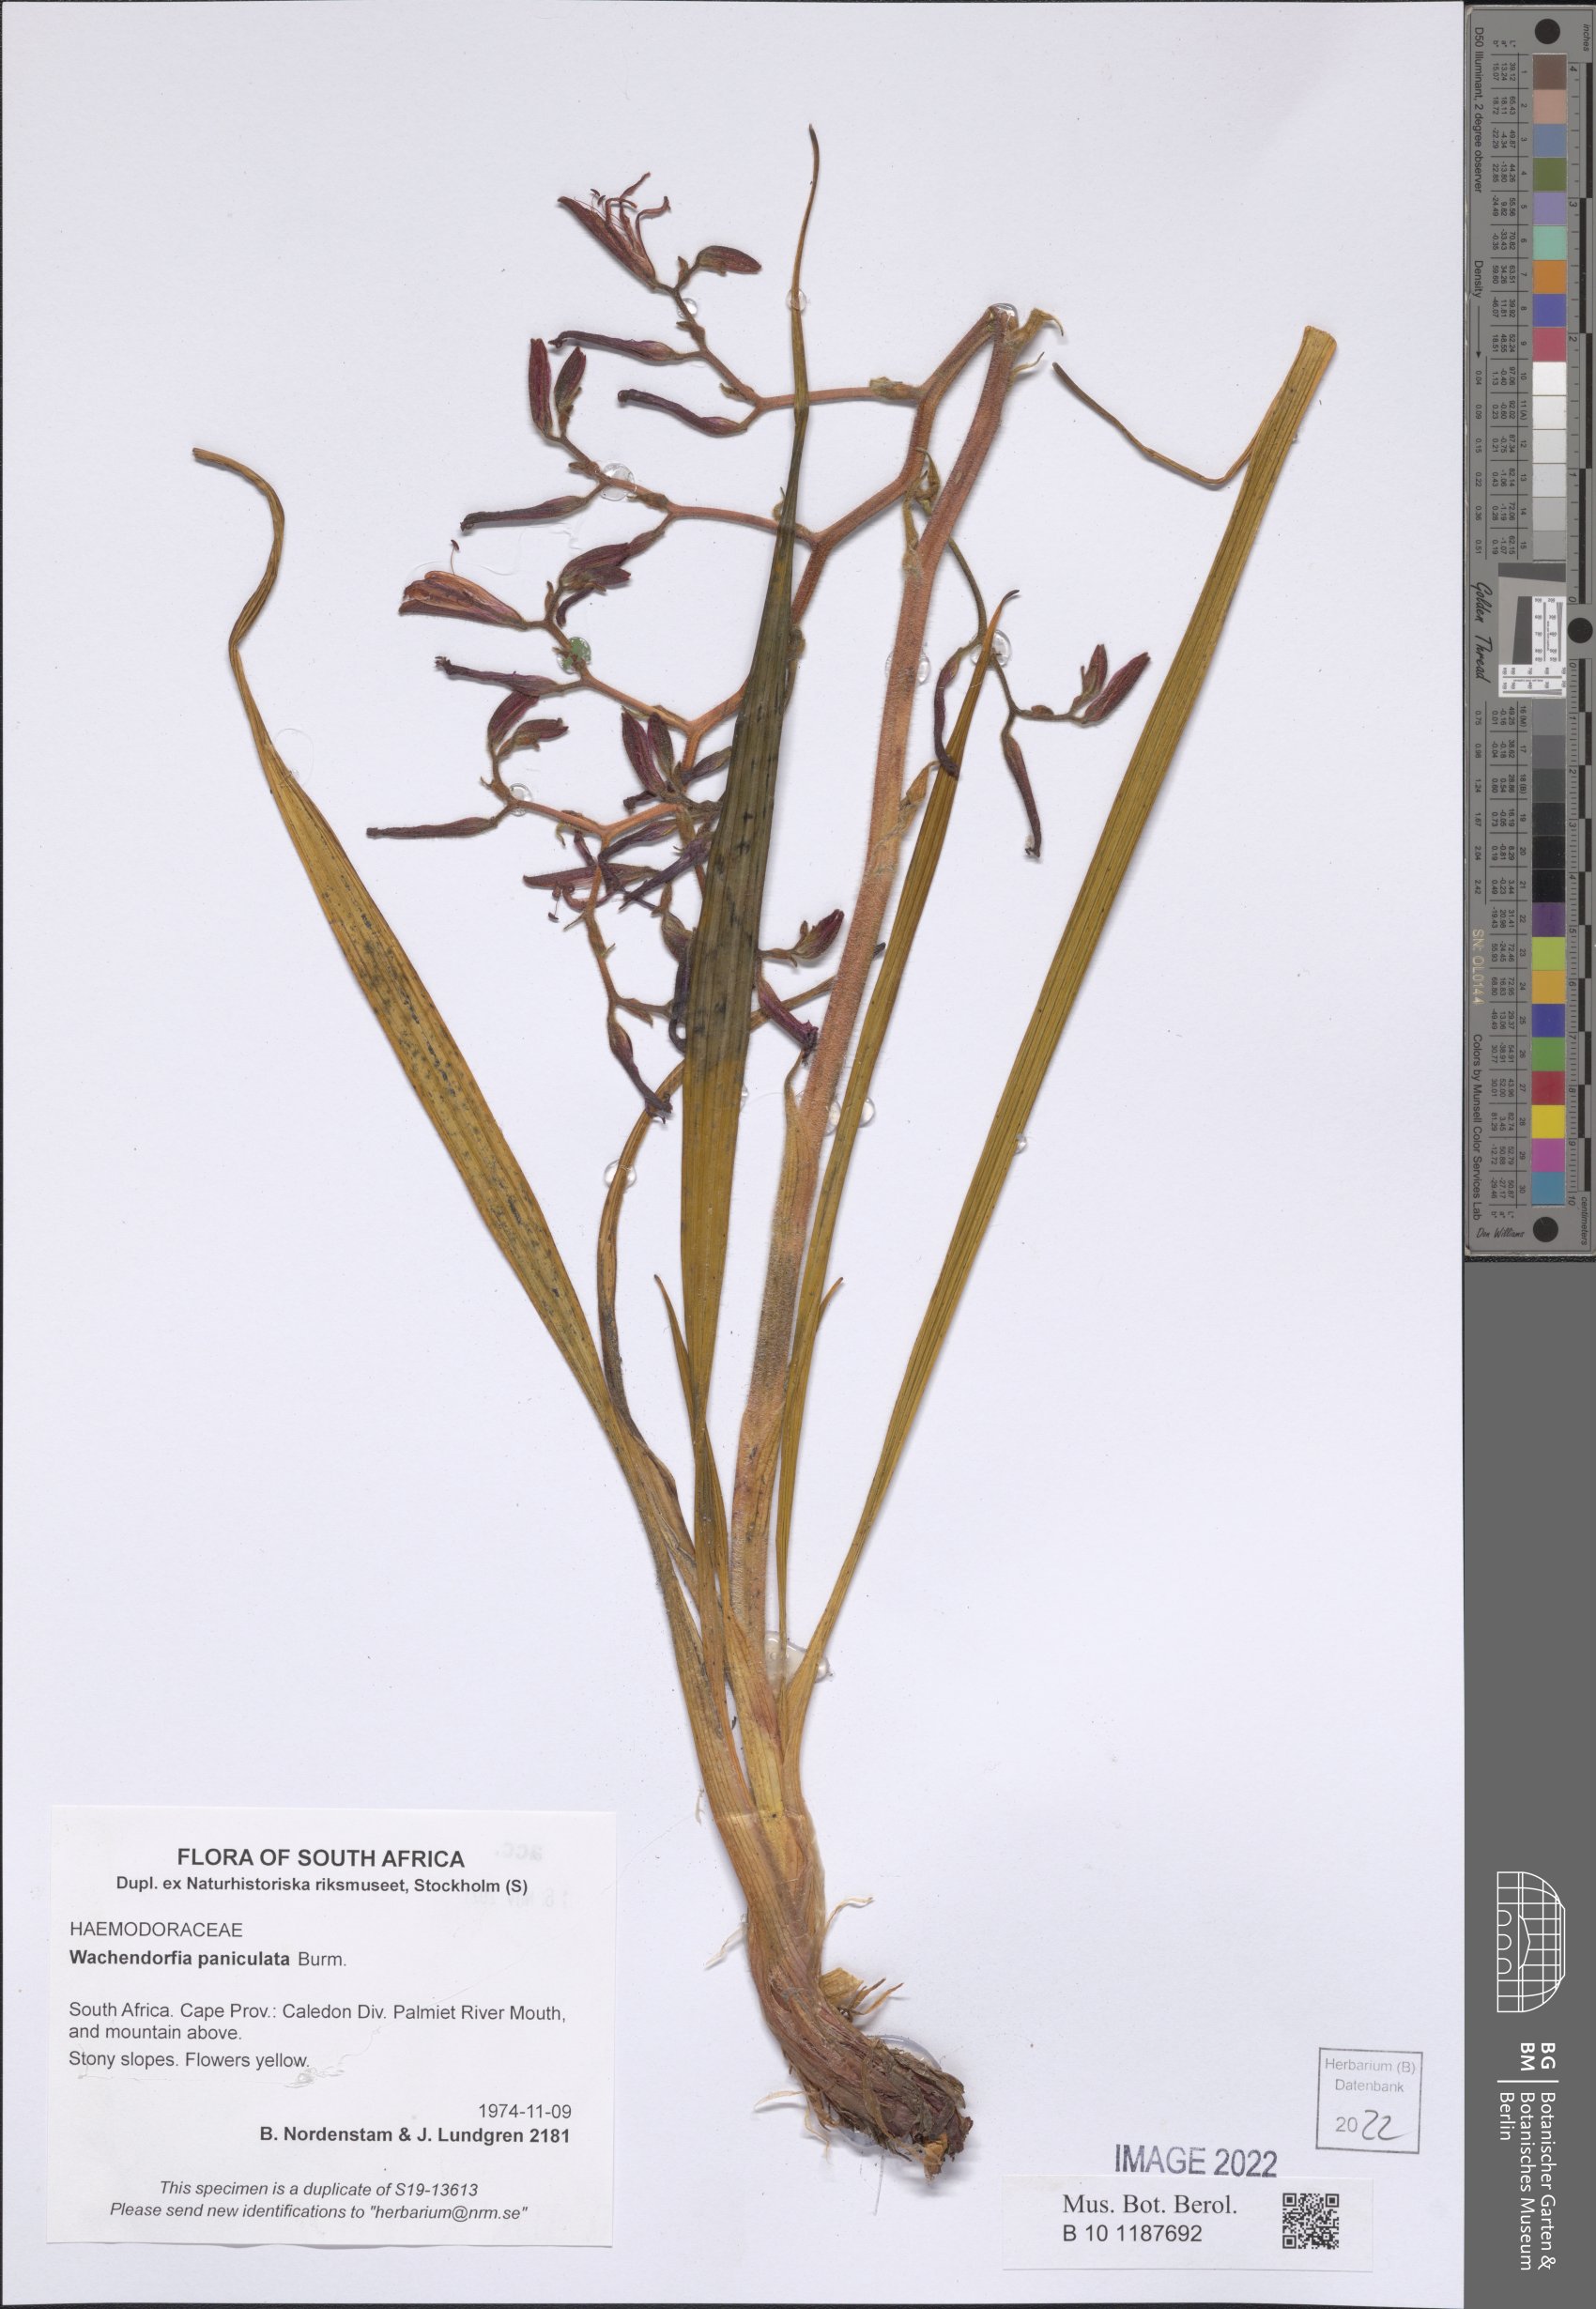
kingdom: Plantae
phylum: Tracheophyta
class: Liliopsida
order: Commelinales
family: Haemodoraceae
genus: Wachendorfia
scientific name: Wachendorfia paniculata
